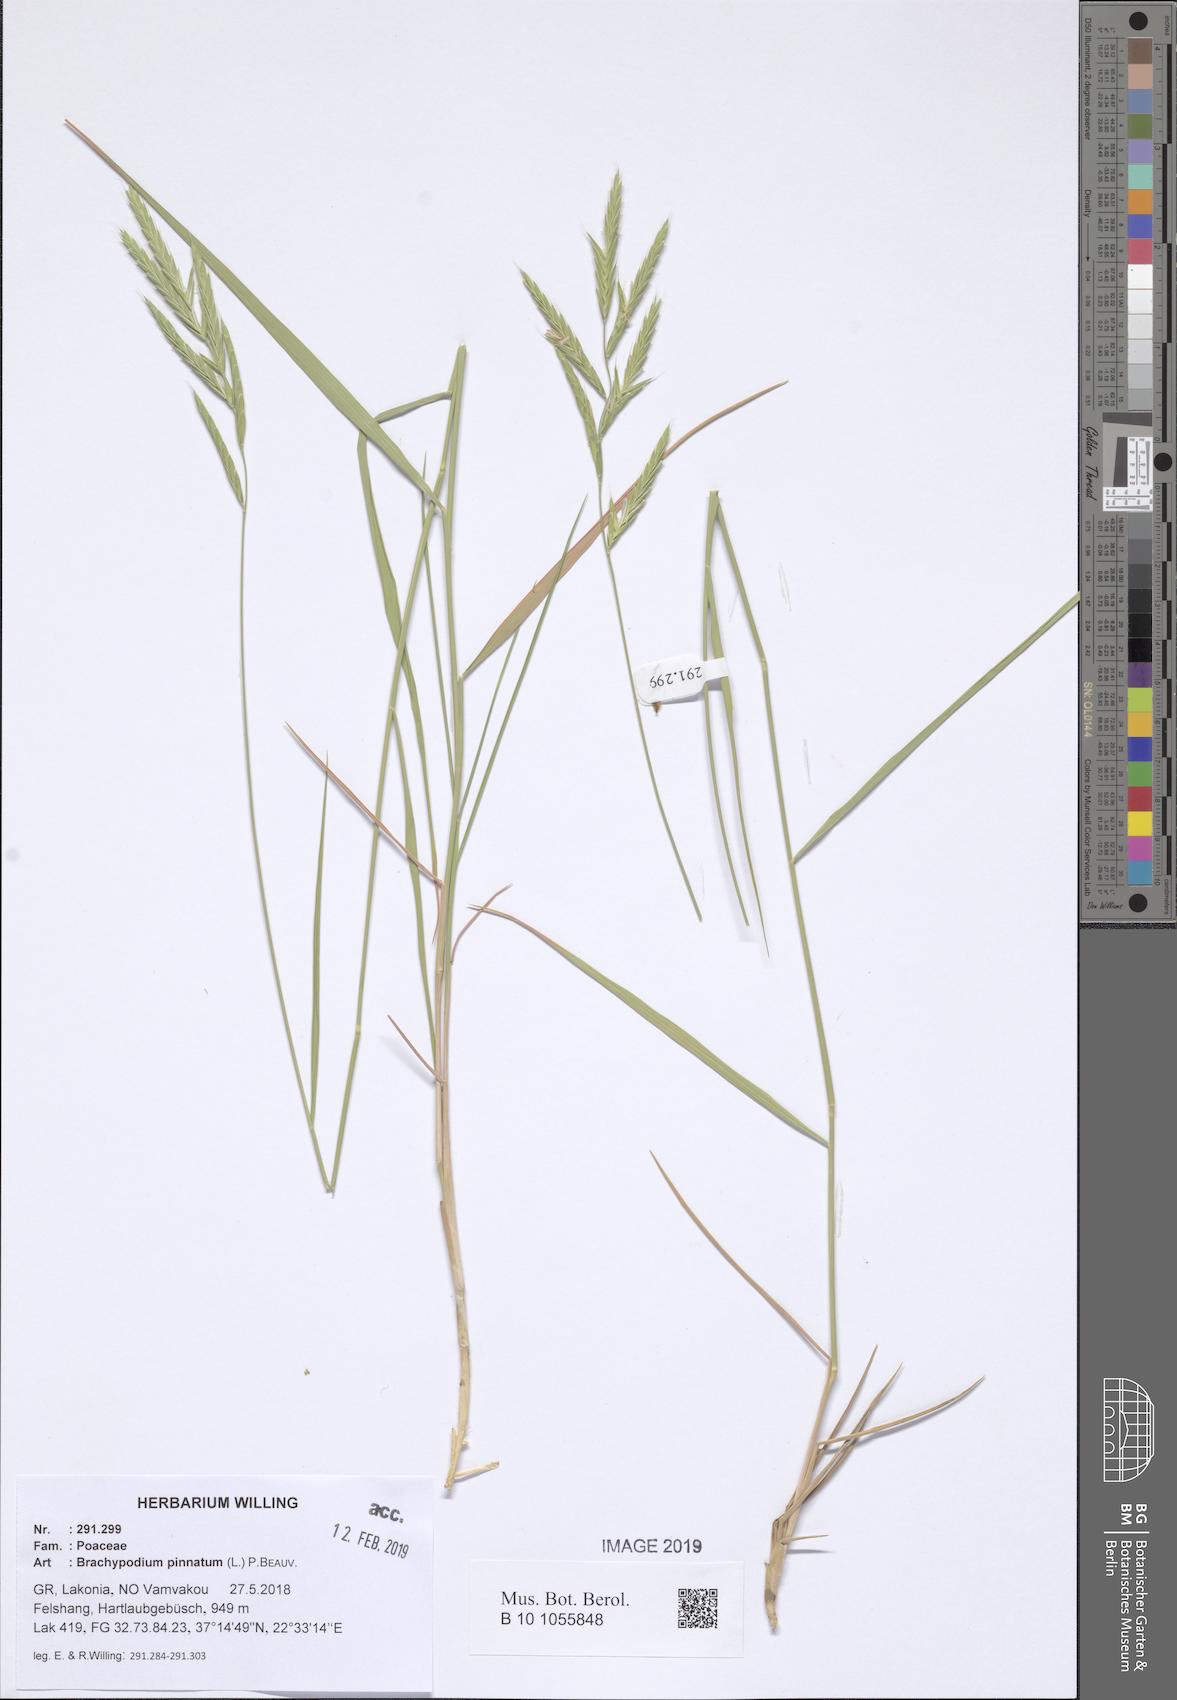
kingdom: Plantae
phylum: Tracheophyta
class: Liliopsida
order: Poales
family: Poaceae
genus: Brachypodium
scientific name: Brachypodium pinnatum
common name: Tor grass
